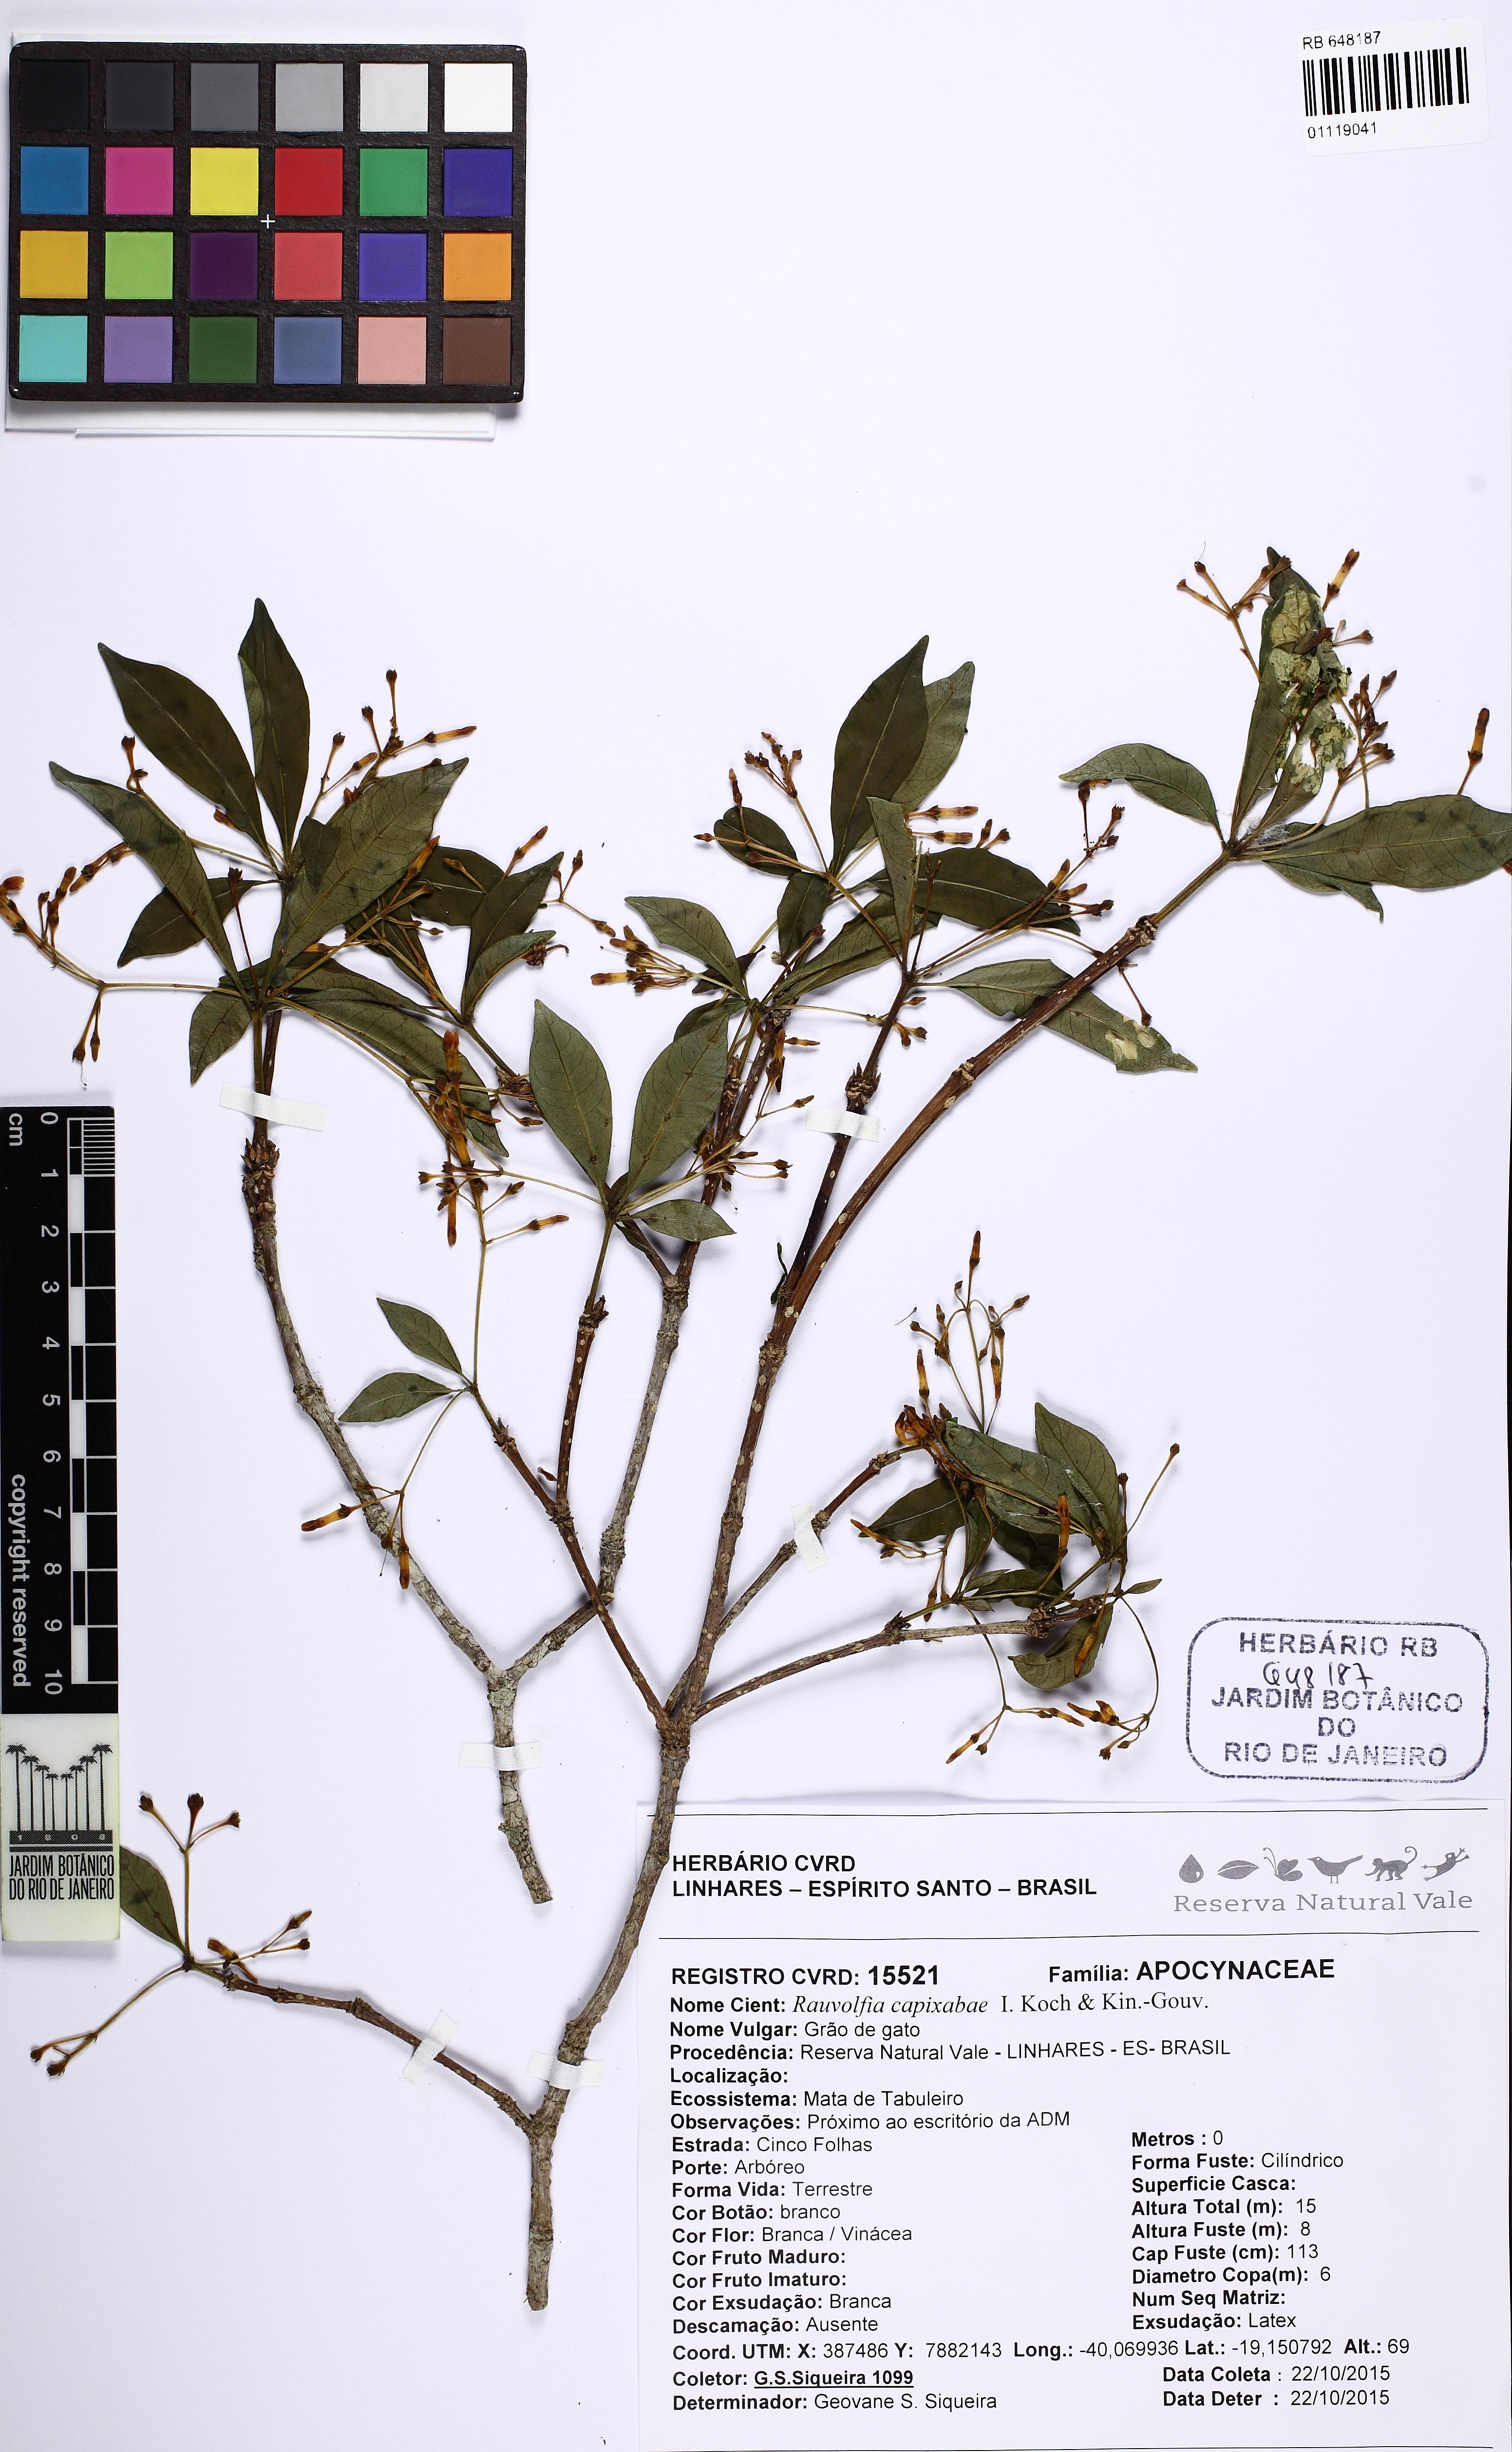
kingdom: Plantae
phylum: Tracheophyta
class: Magnoliopsida
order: Gentianales
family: Apocynaceae
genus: Rauvolfia
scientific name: Rauvolfia capixabae
